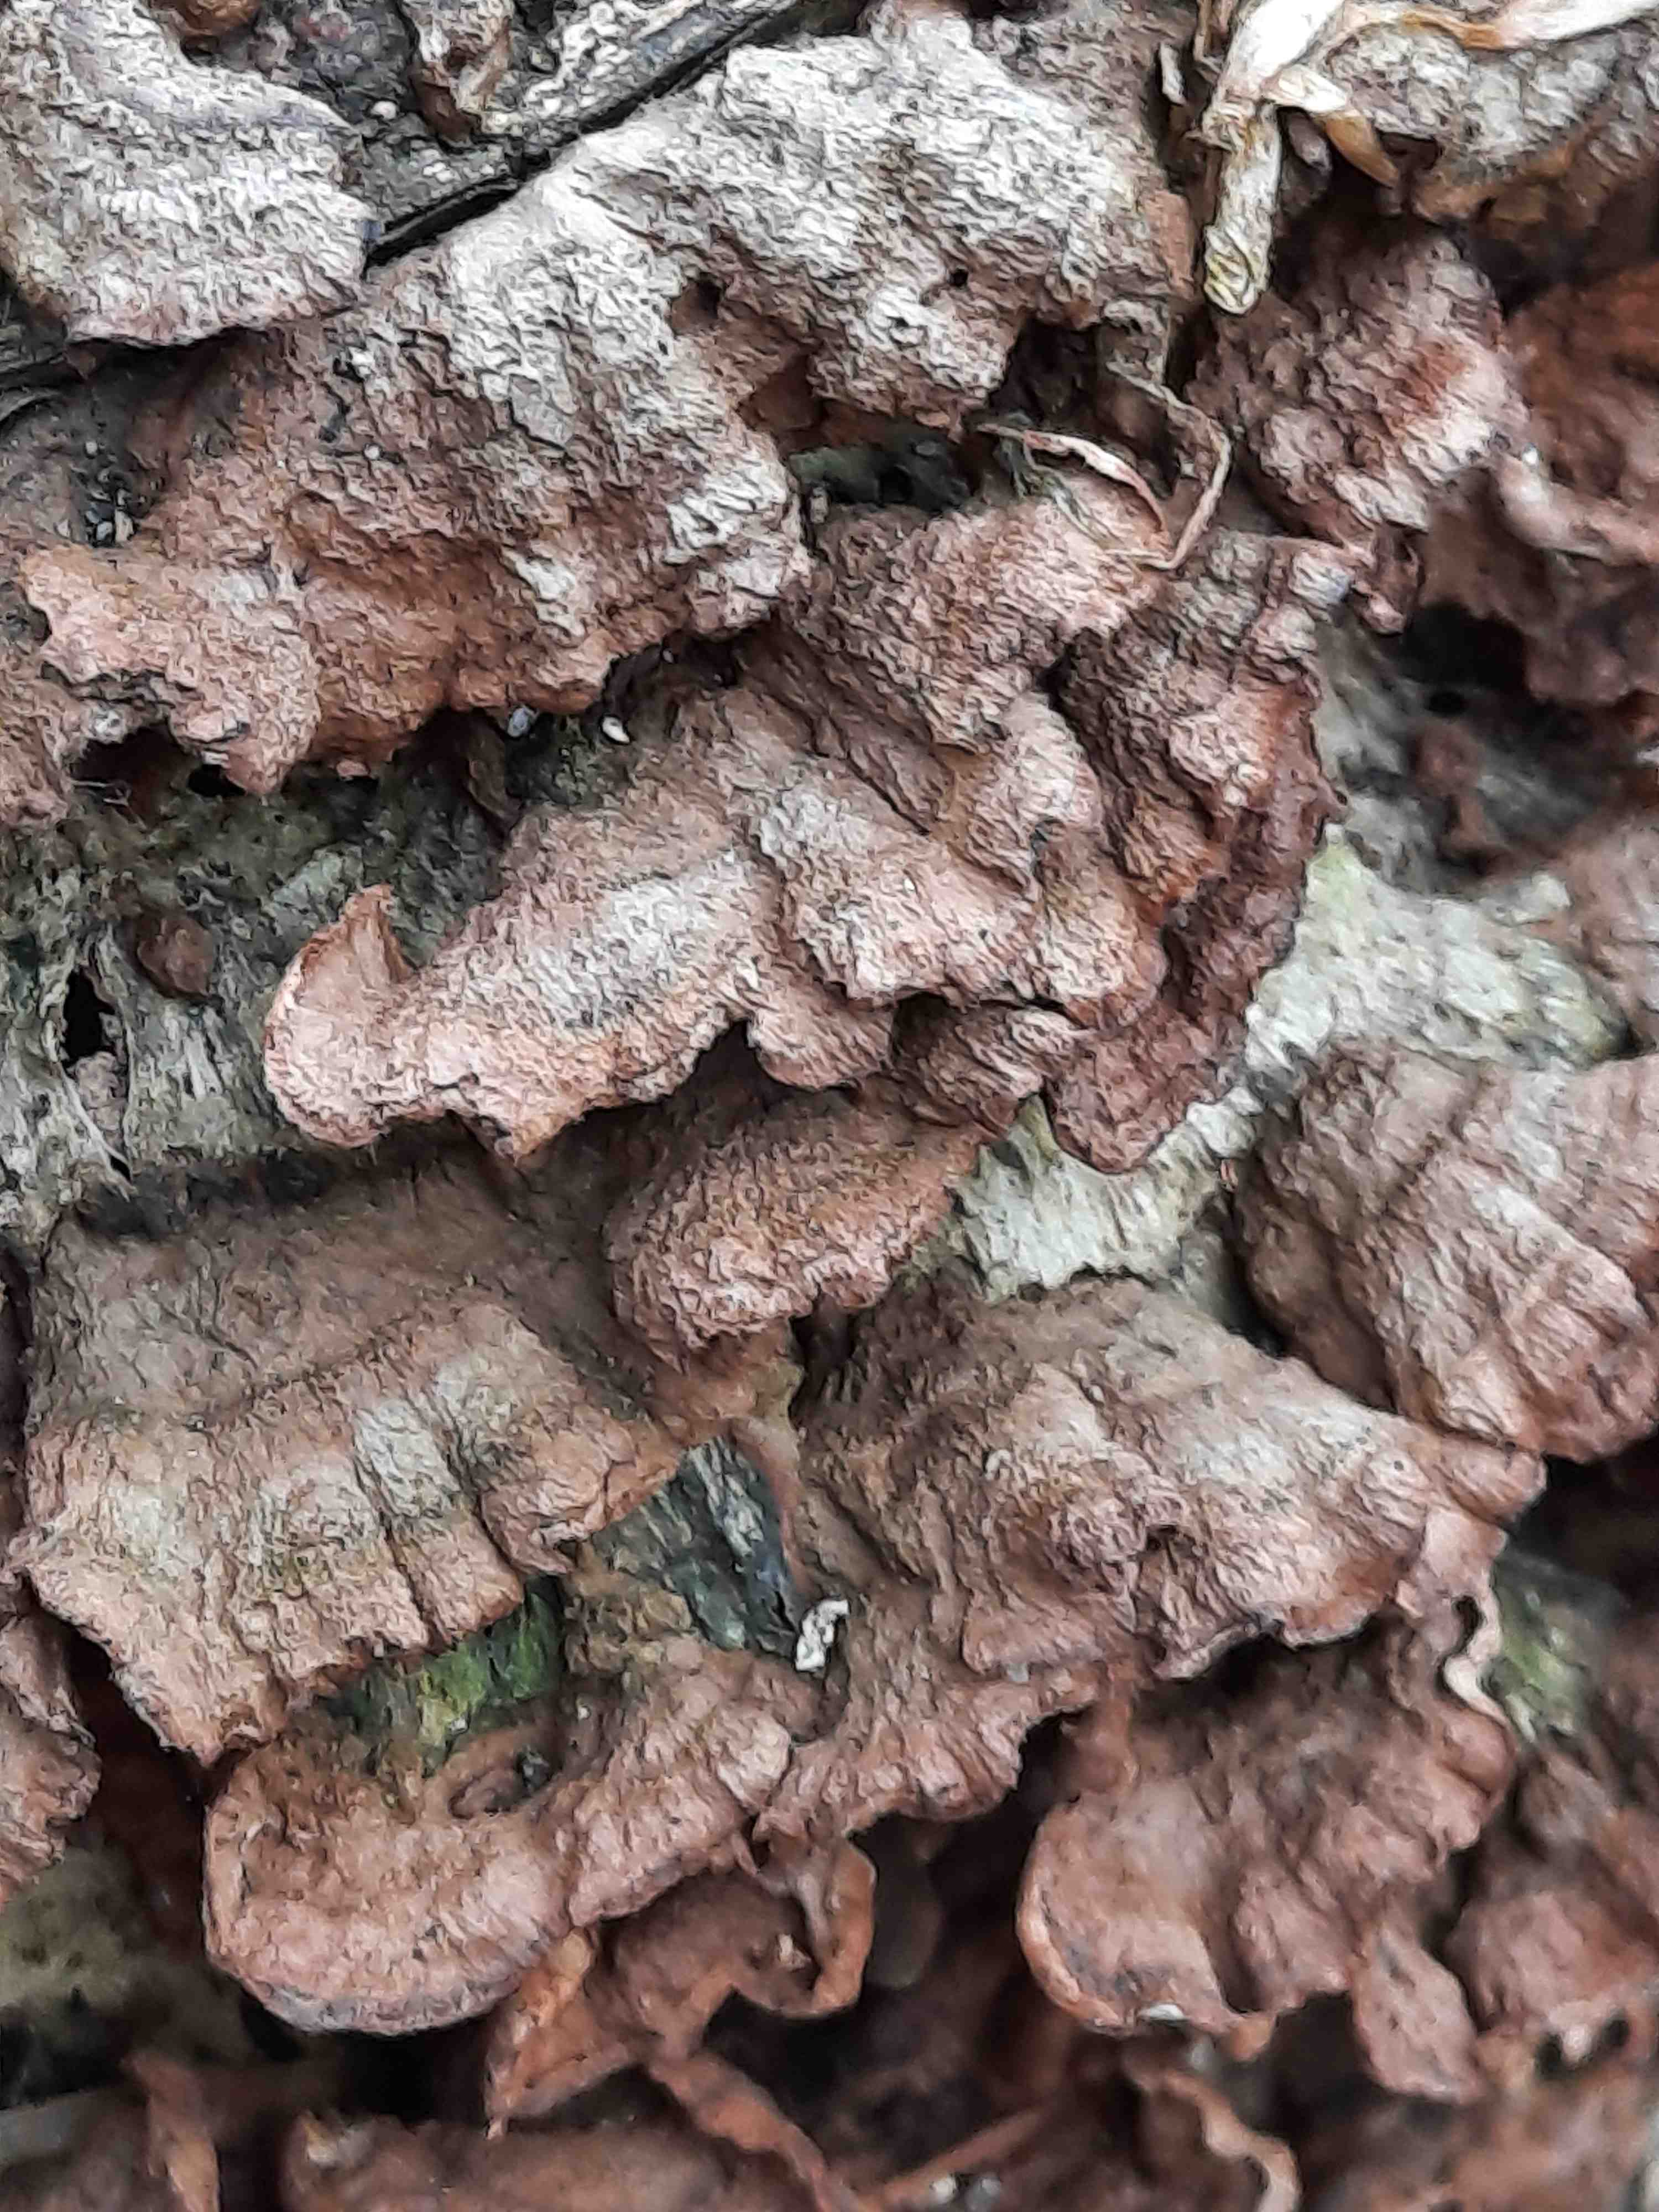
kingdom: Fungi
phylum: Basidiomycota
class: Agaricomycetes
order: Russulales
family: Hericiaceae
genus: Laxitextum
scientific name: Laxitextum bicolor
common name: tvefarvet filtskind
